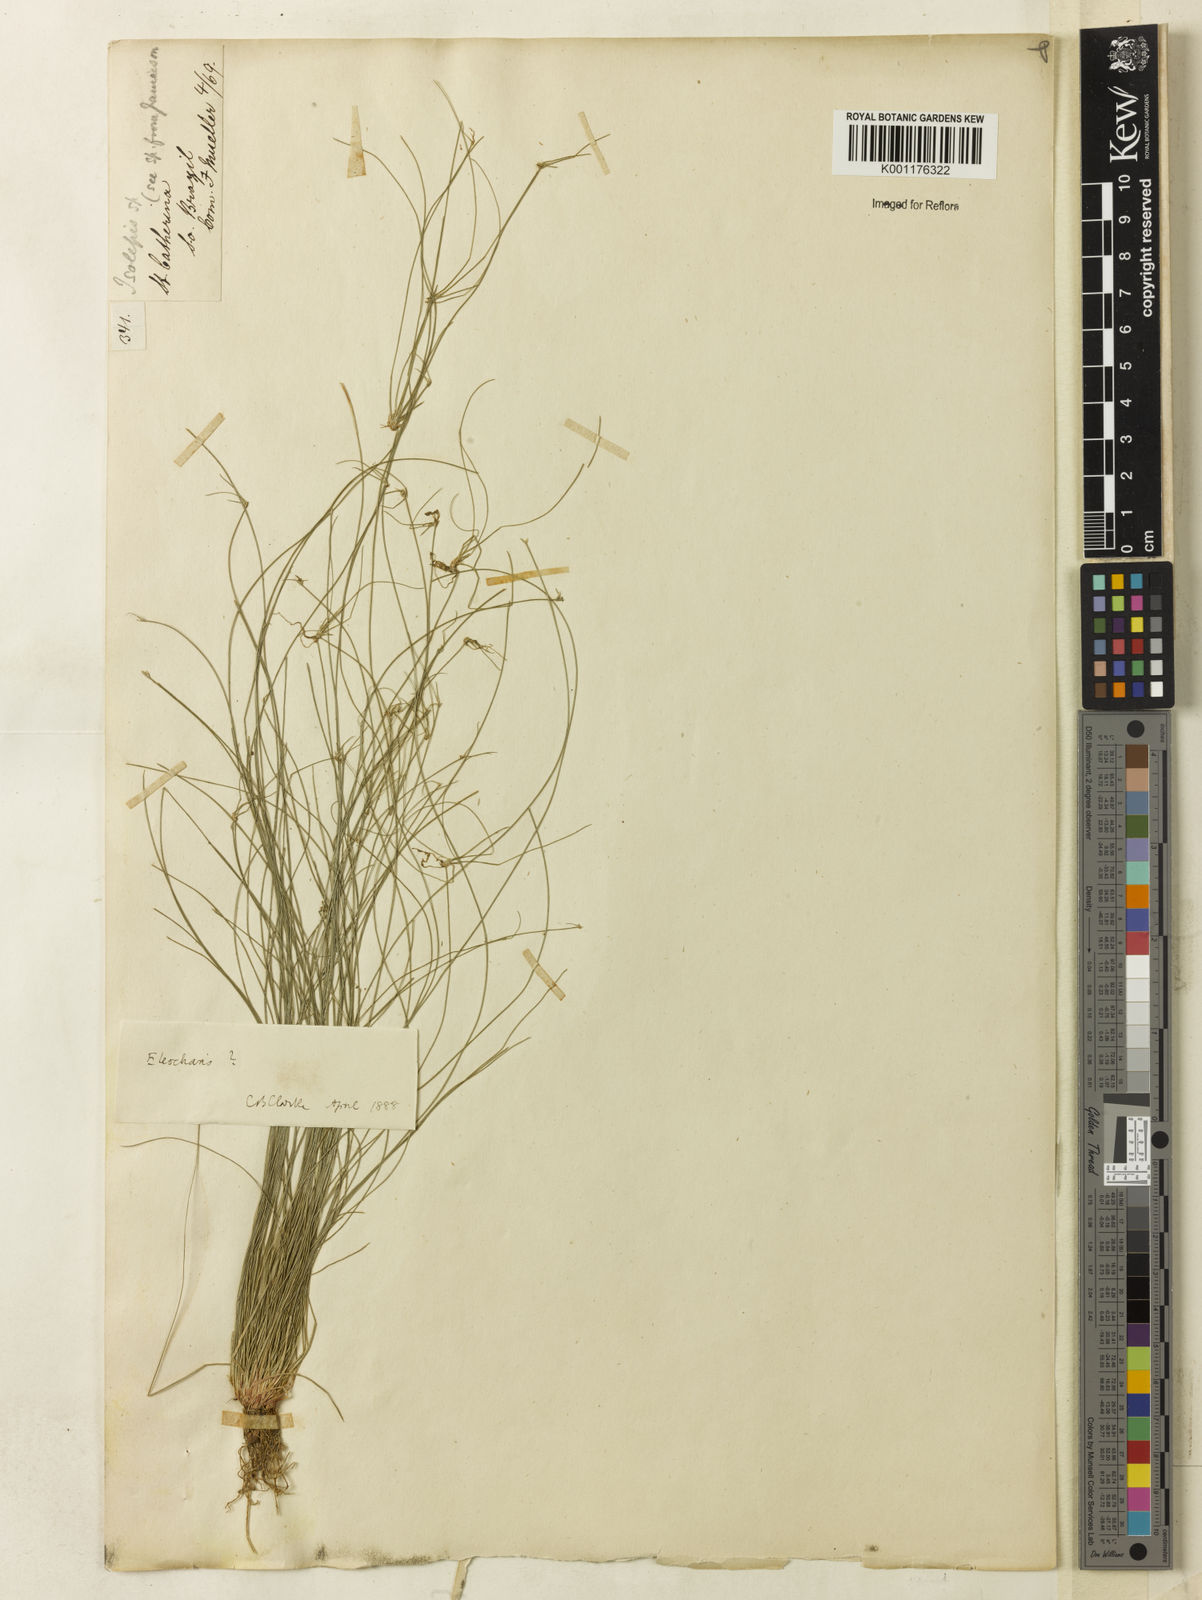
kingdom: Plantae
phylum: Tracheophyta
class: Liliopsida
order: Poales
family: Cyperaceae
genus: Eleocharis
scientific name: Eleocharis
